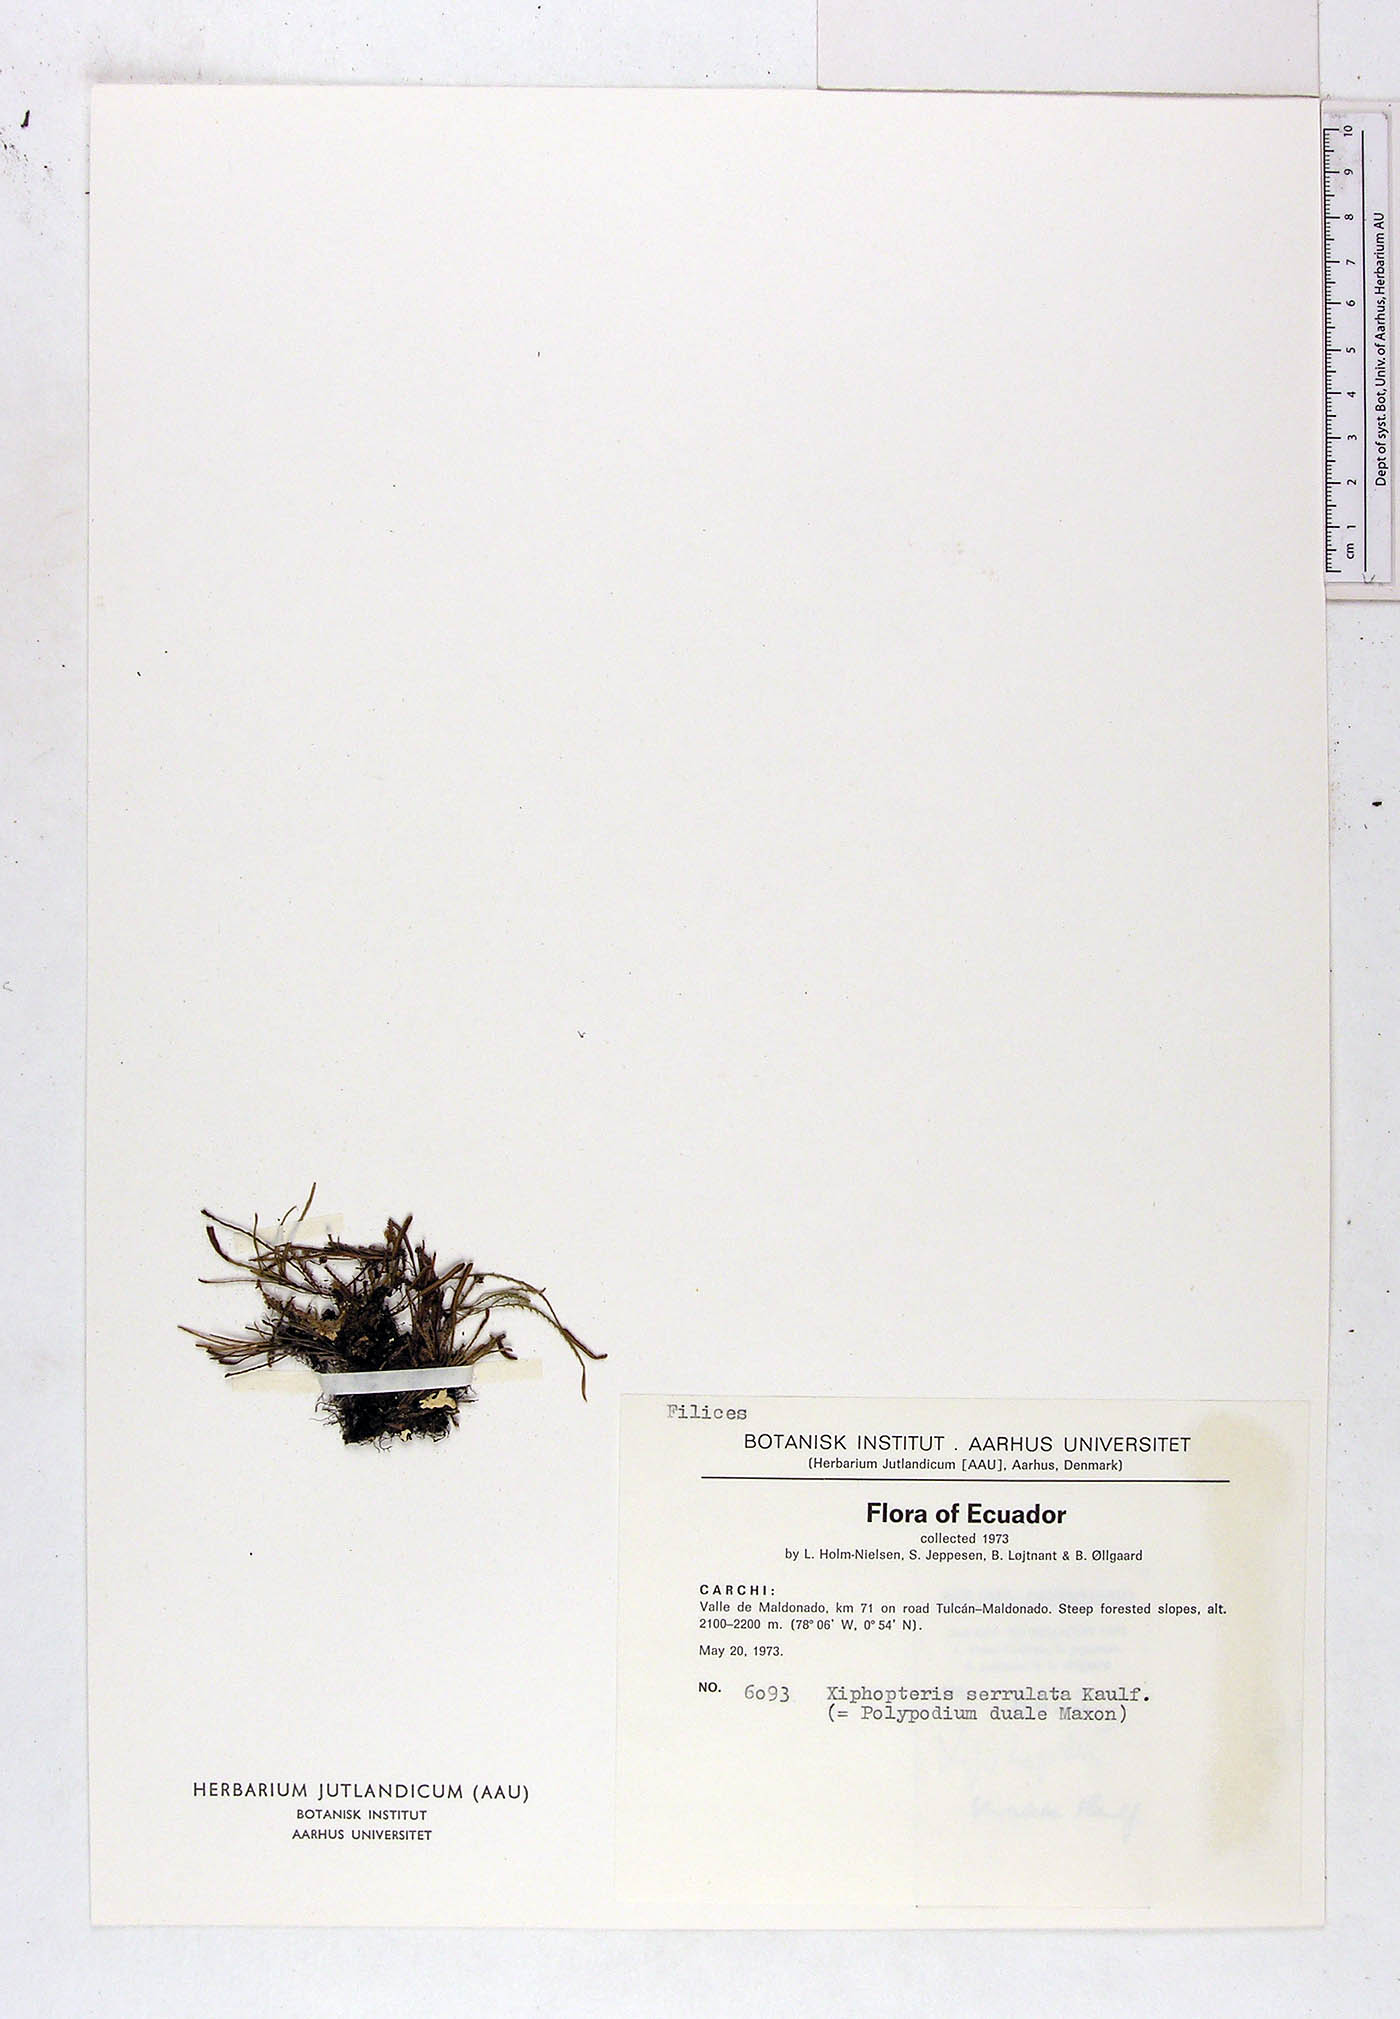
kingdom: Plantae
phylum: Tracheophyta
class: Polypodiopsida
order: Polypodiales
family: Polypodiaceae
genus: Cochlidium
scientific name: Cochlidium serrulatum
